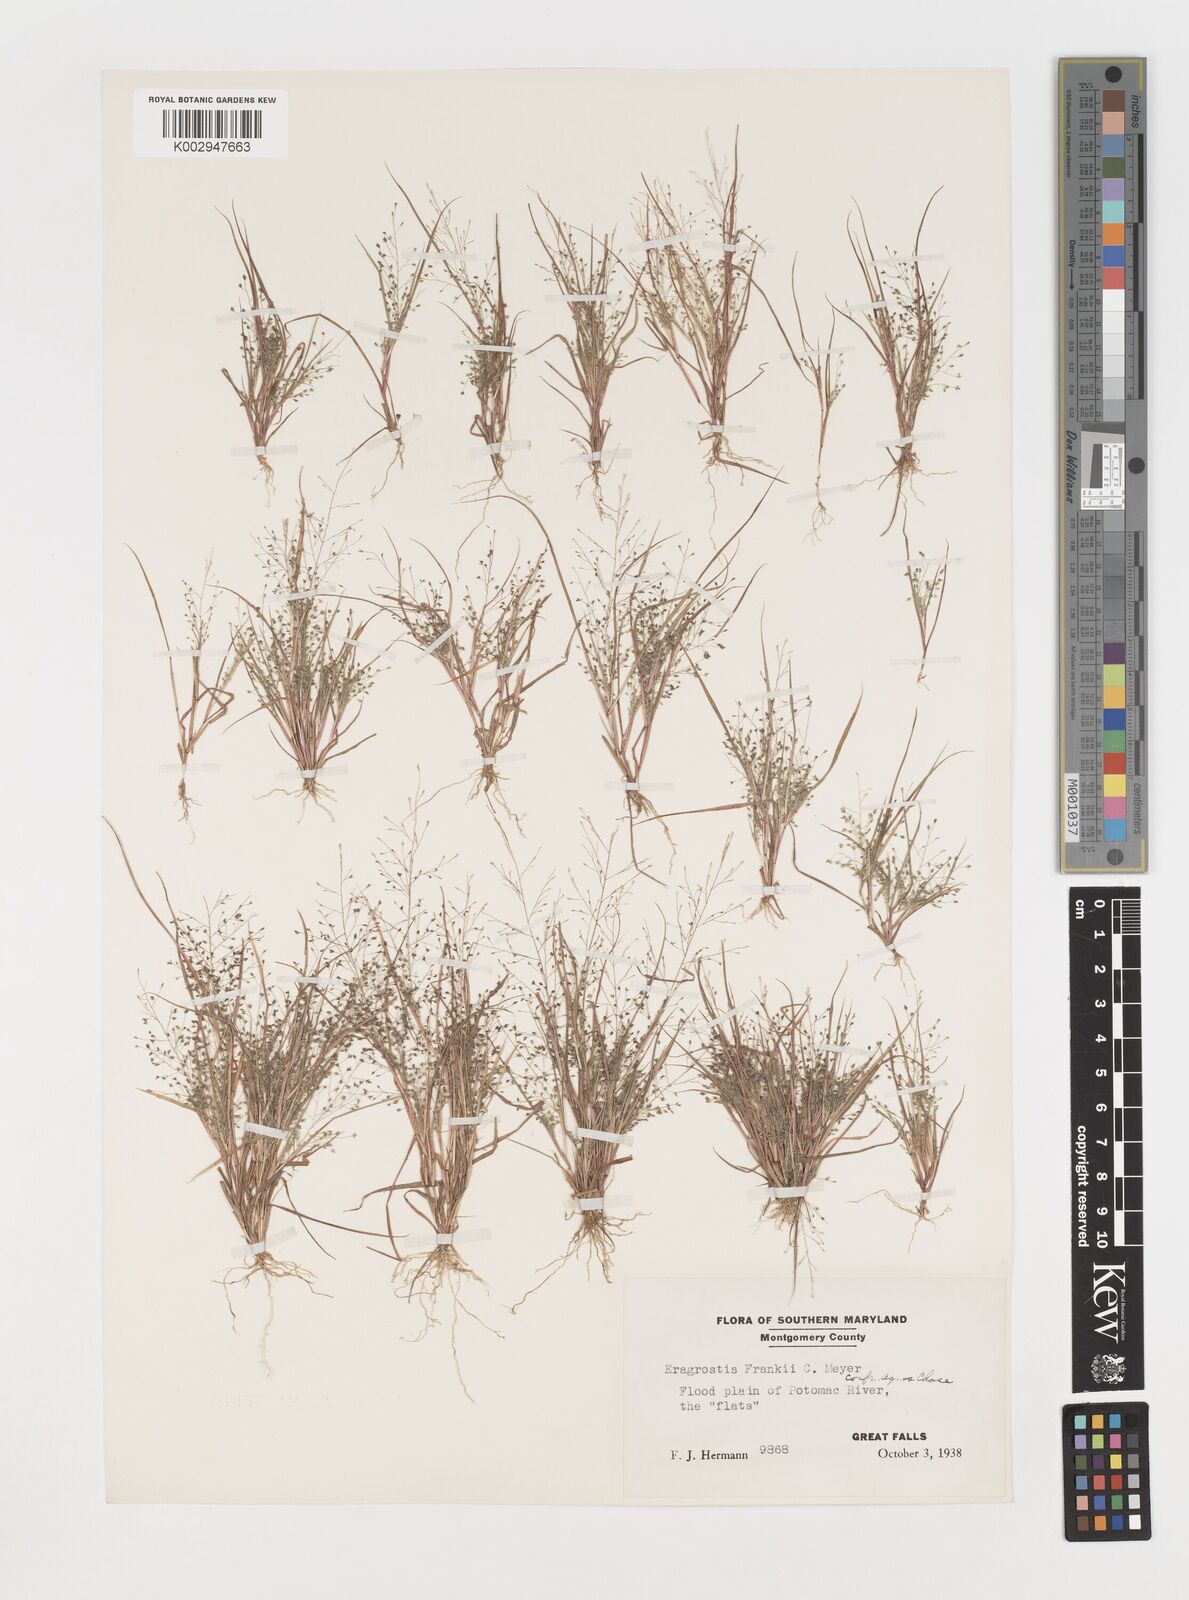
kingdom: Plantae
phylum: Tracheophyta
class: Liliopsida
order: Poales
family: Poaceae
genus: Eragrostis
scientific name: Eragrostis frankii
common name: Frank's lovegrass
